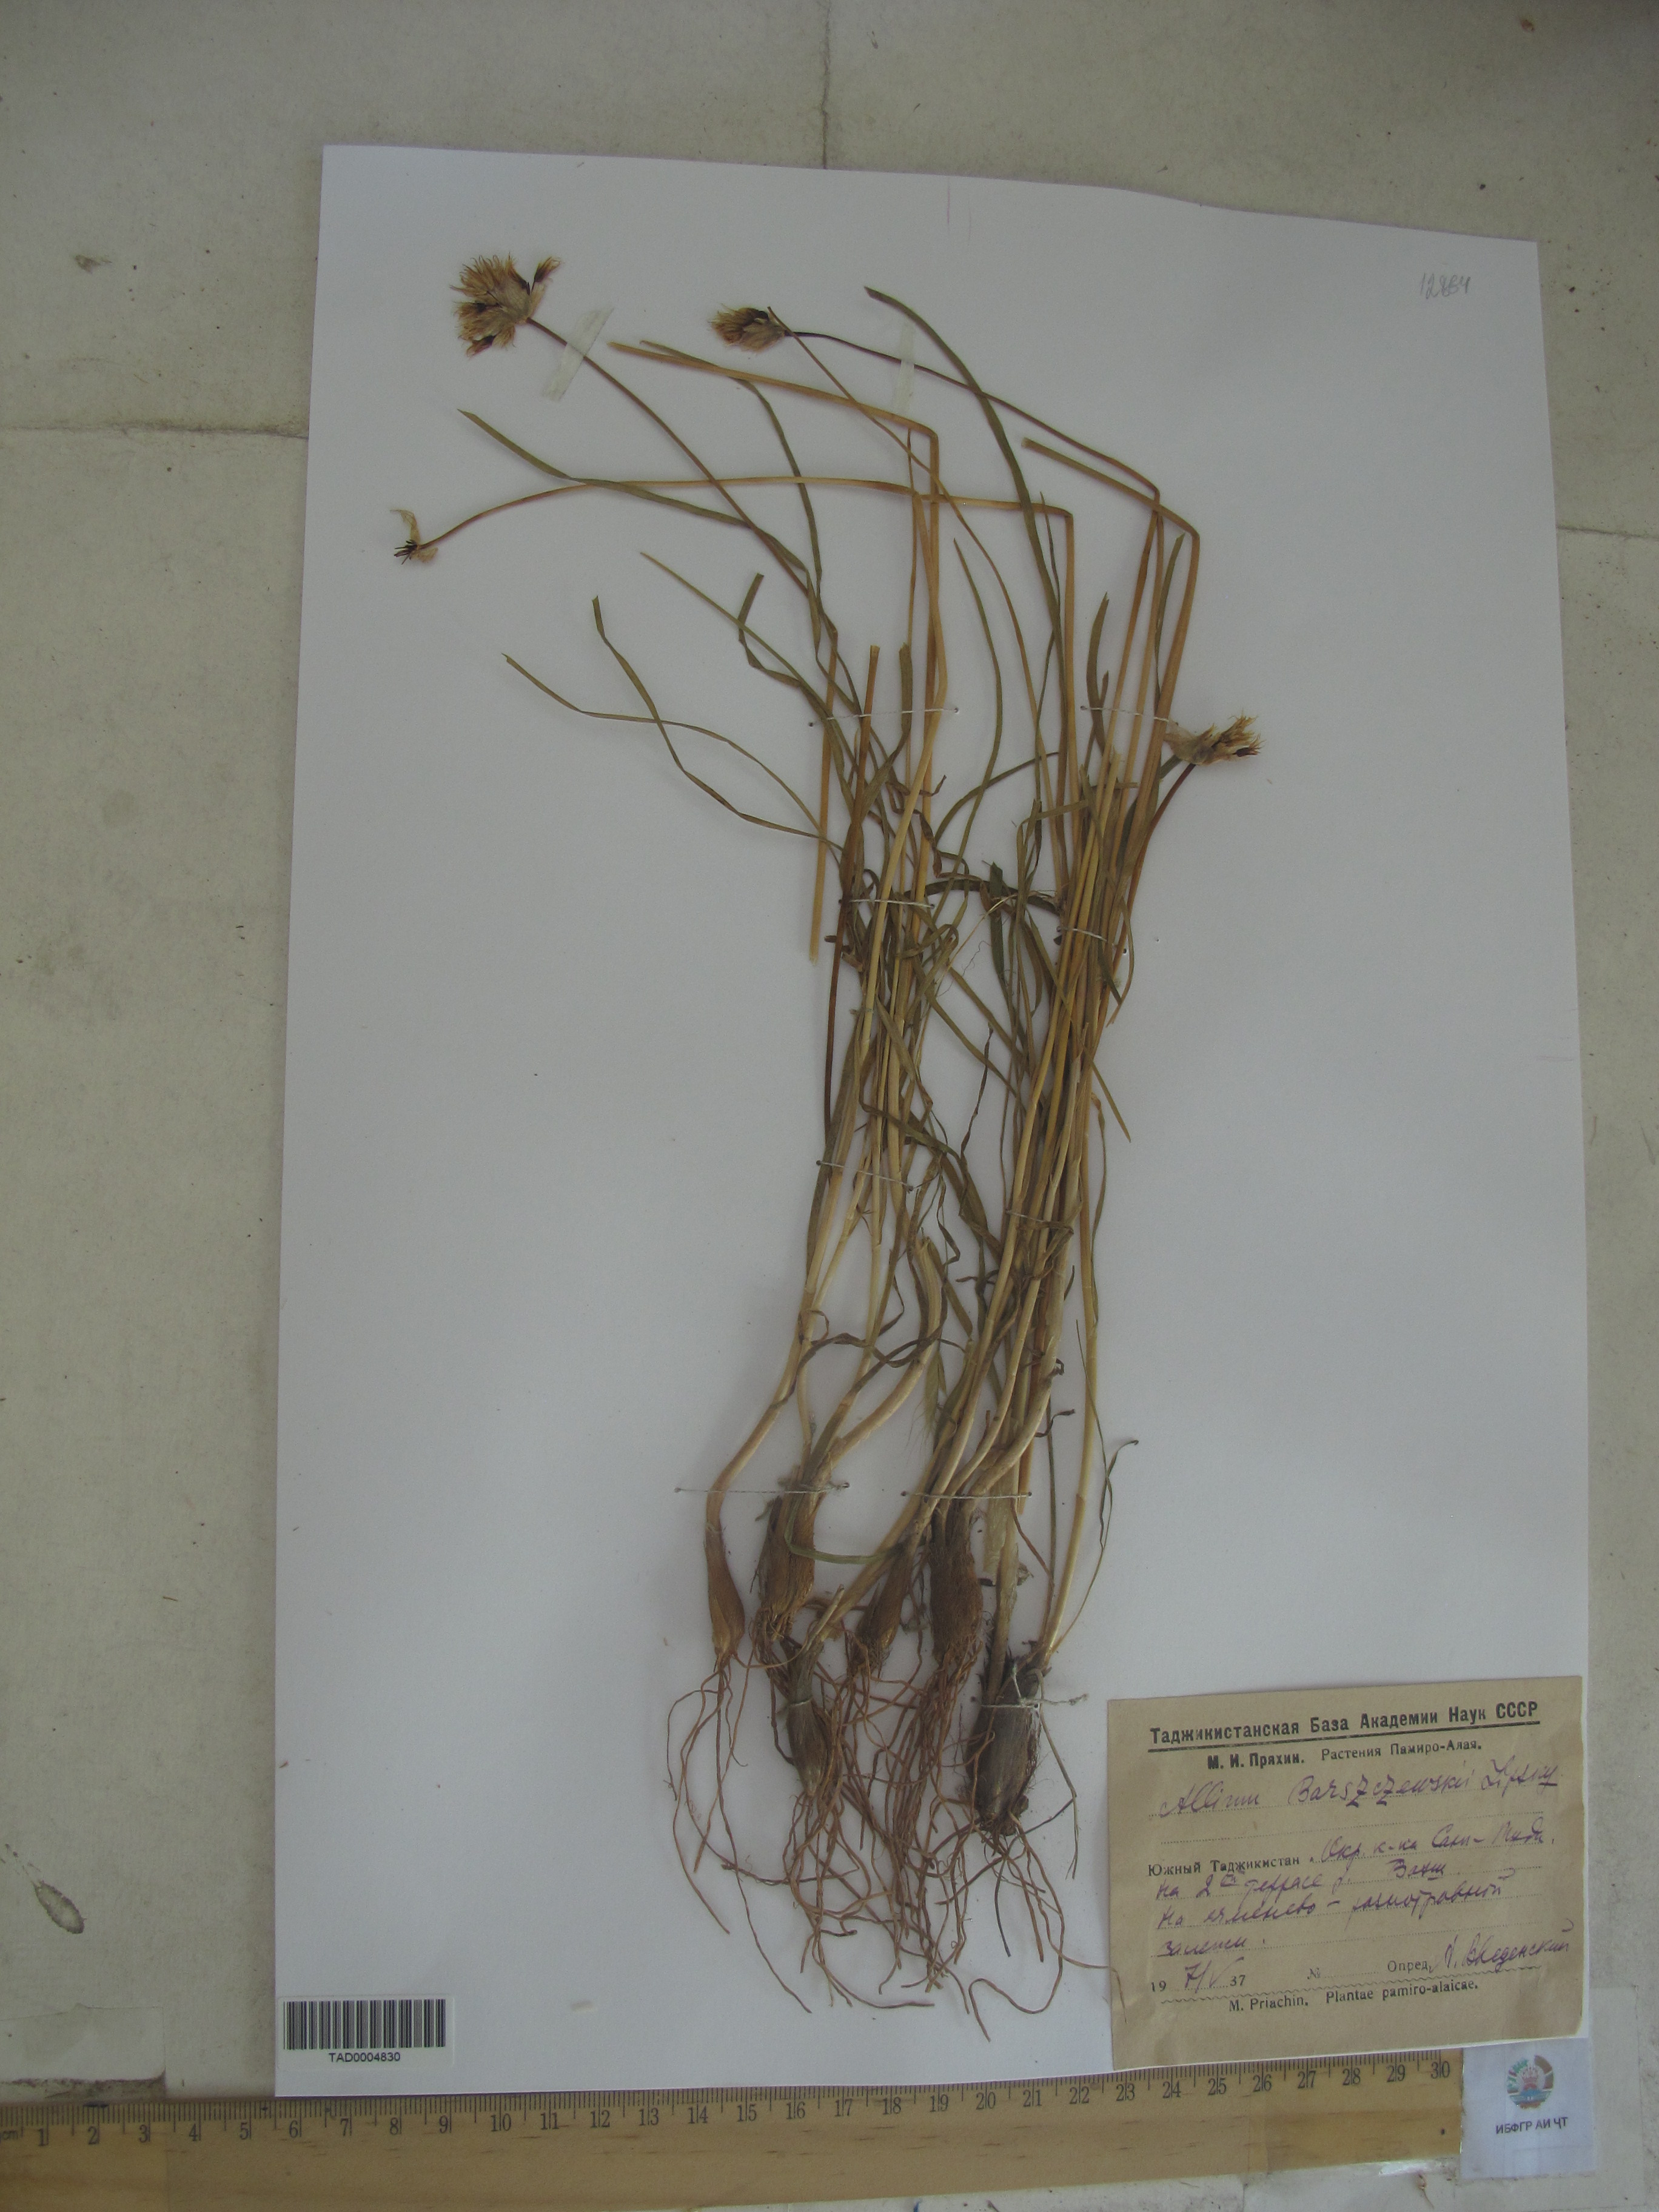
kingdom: Plantae
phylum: Tracheophyta
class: Liliopsida
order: Asparagales
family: Amaryllidaceae
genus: Allium
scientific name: Allium barsczewskii
